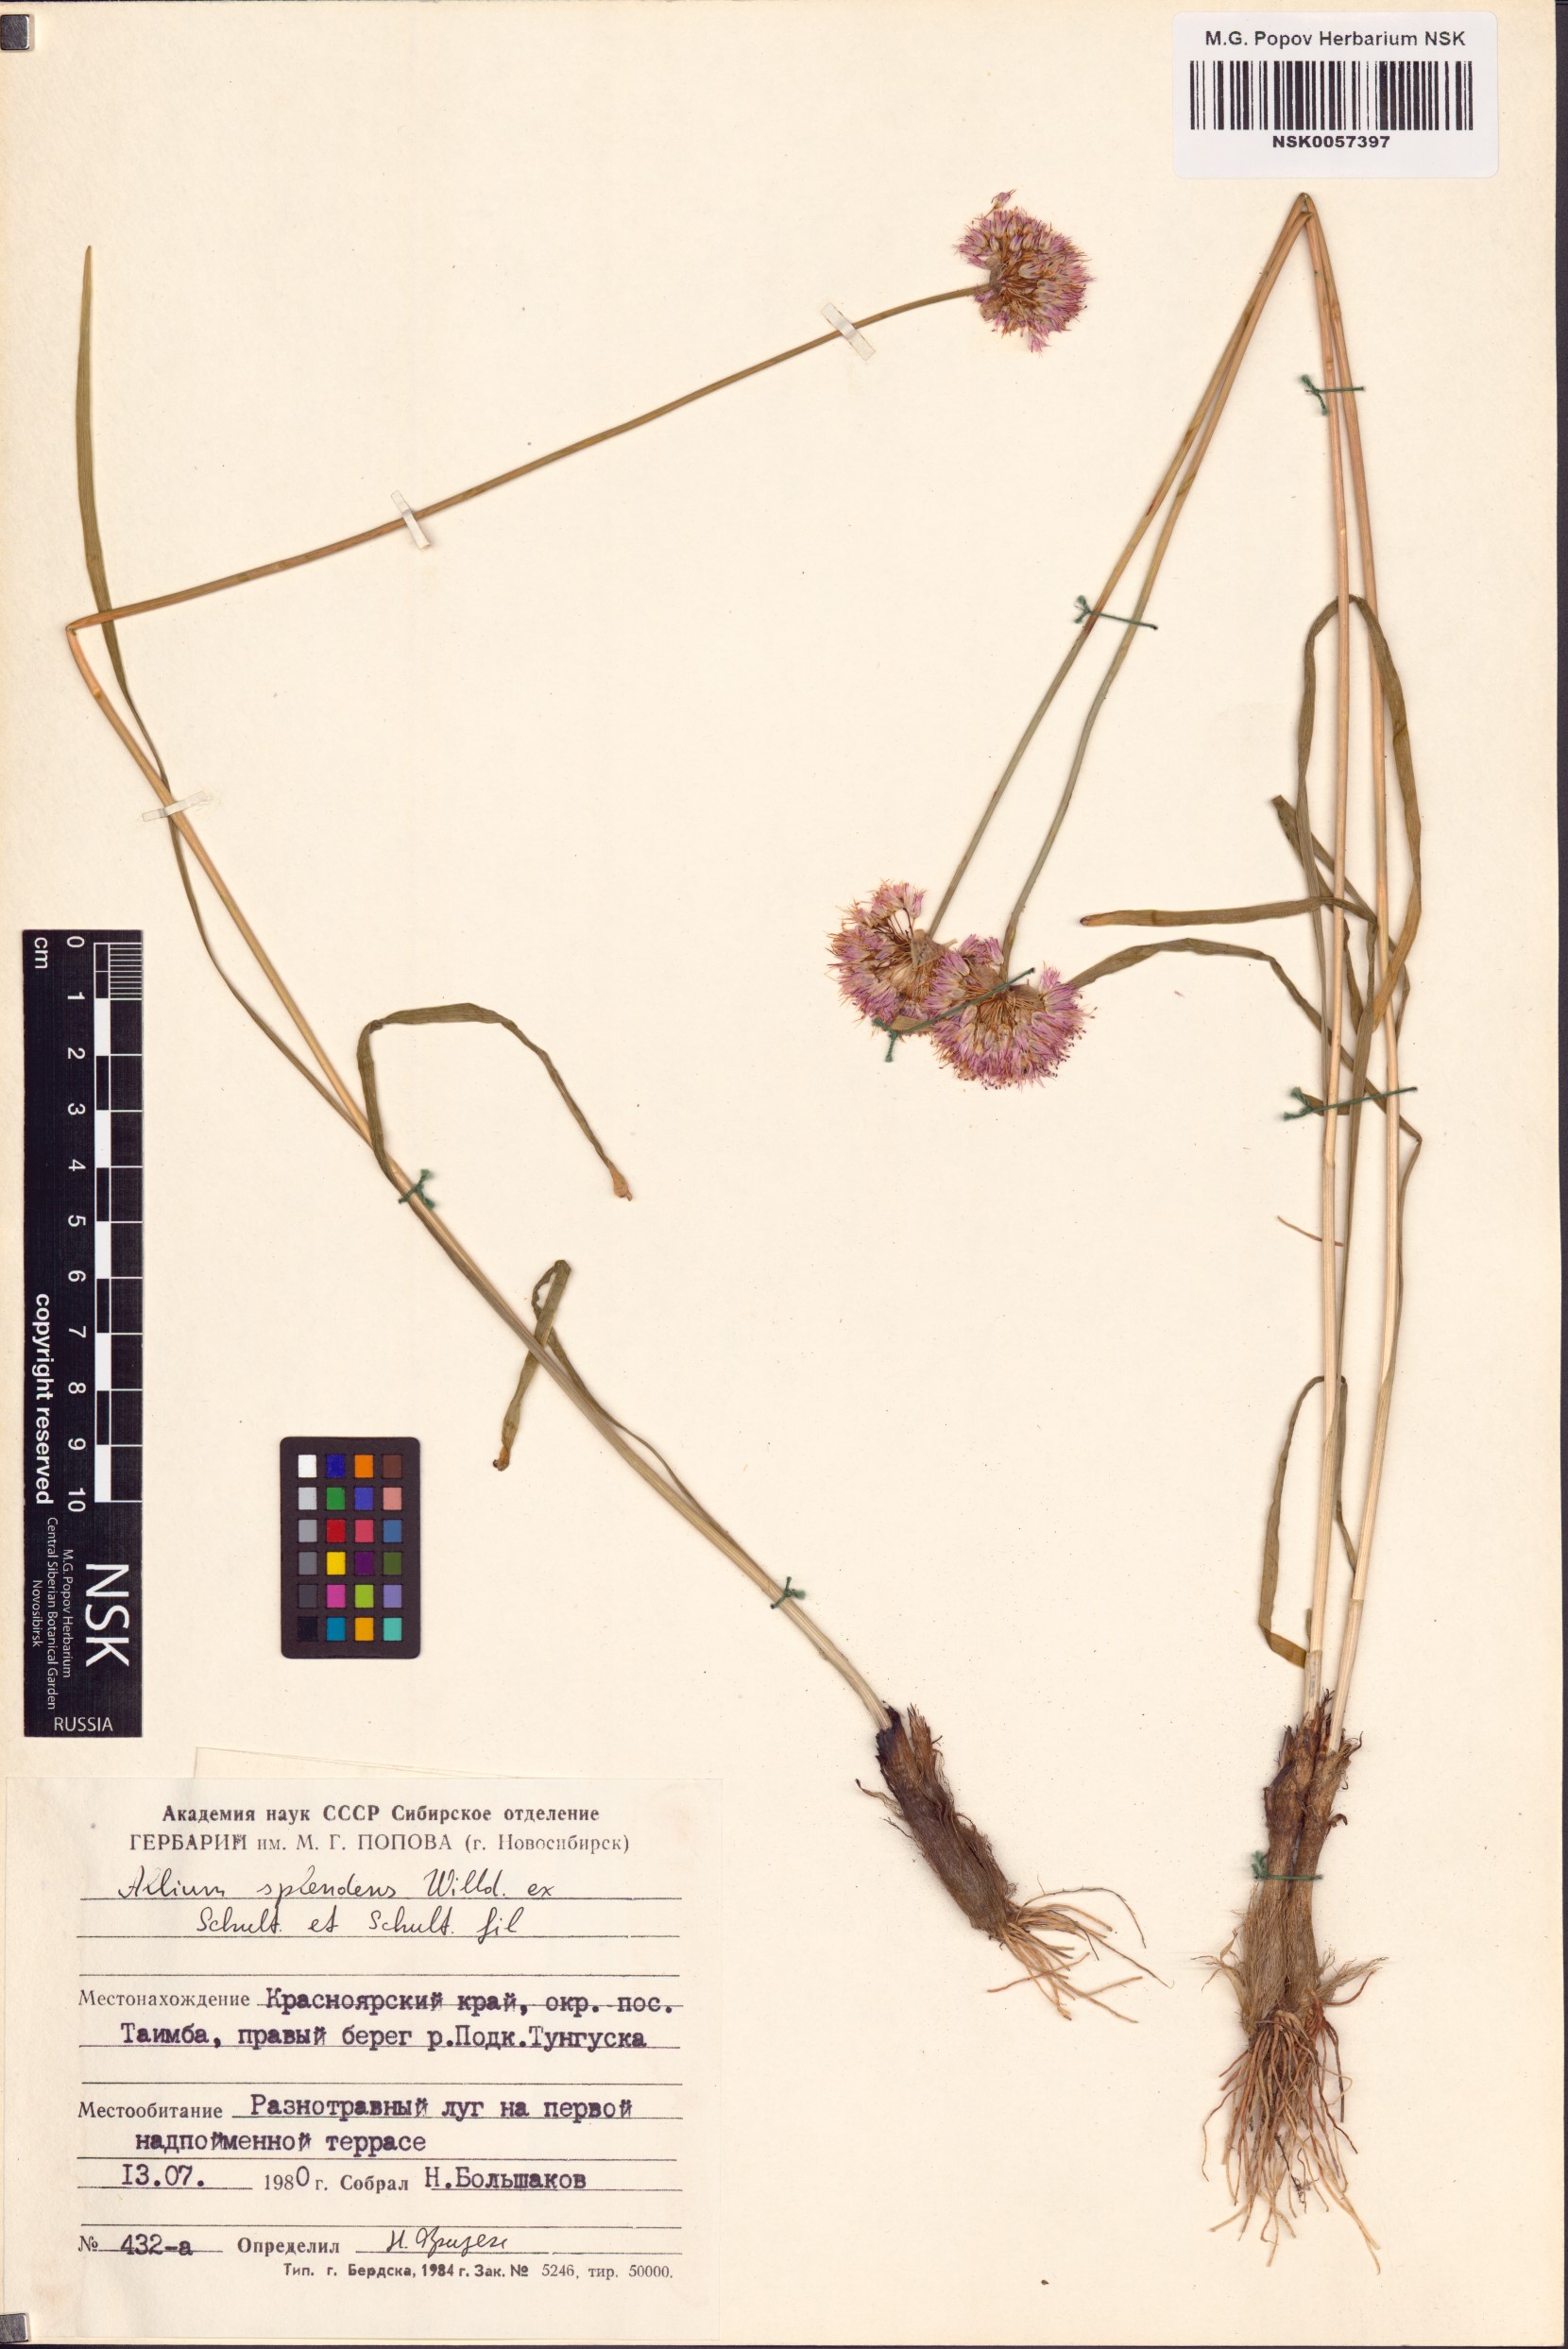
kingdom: Plantae
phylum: Tracheophyta
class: Liliopsida
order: Asparagales
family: Amaryllidaceae
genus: Allium
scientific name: Allium splendens
